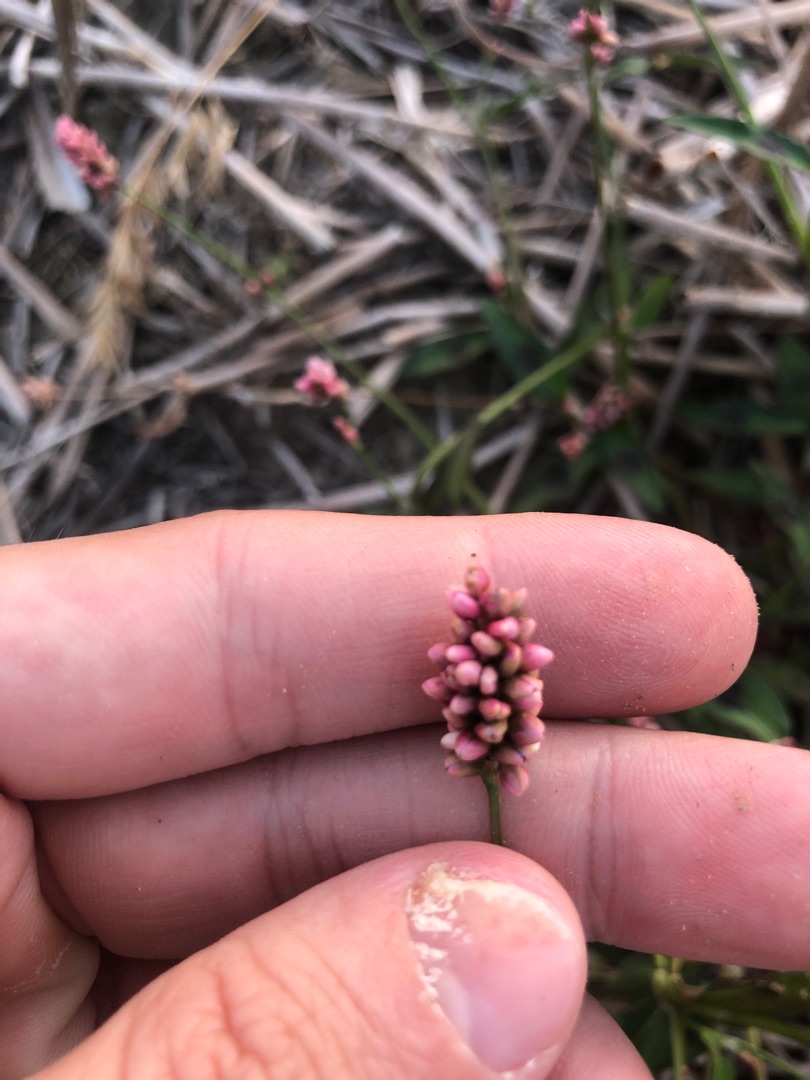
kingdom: Plantae
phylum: Tracheophyta
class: Magnoliopsida
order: Caryophyllales
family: Polygonaceae
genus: Persicaria
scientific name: Persicaria maculosa
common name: Fersken-pileurt
